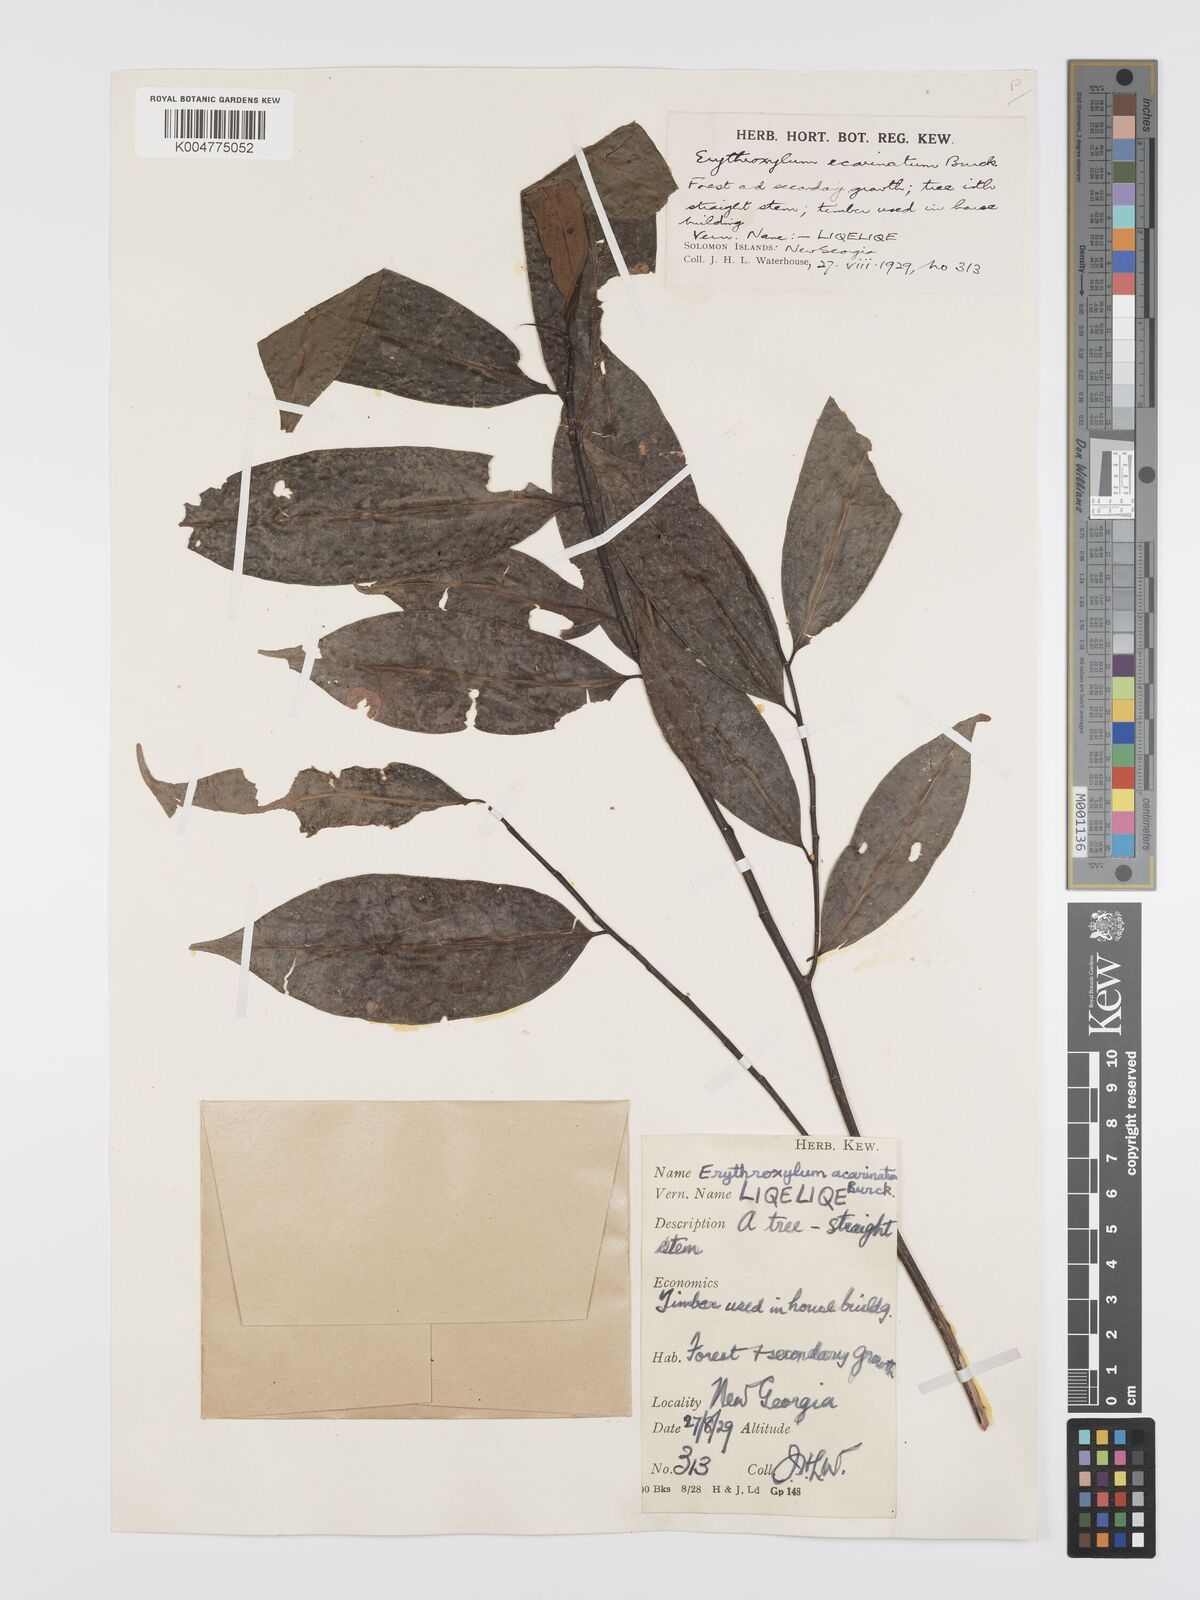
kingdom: Plantae
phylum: Tracheophyta
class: Magnoliopsida
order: Malpighiales
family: Erythroxylaceae
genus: Erythroxylum
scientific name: Erythroxylum ecarinatum
